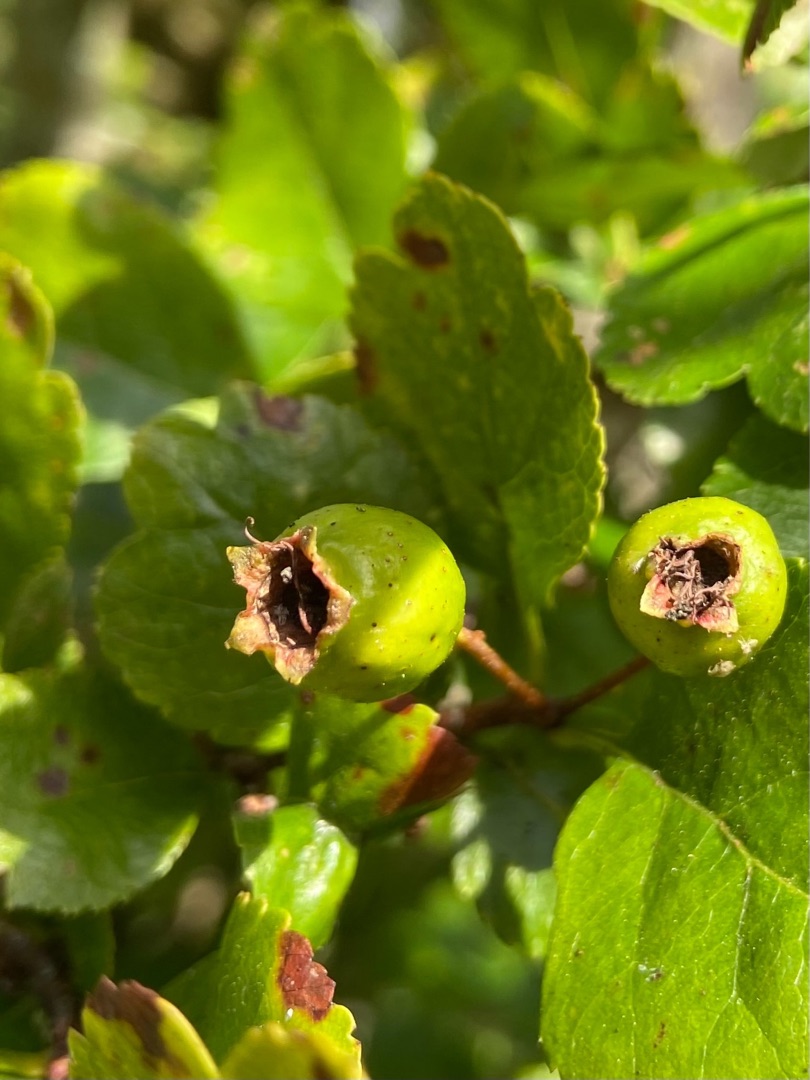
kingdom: Plantae
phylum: Tracheophyta
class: Magnoliopsida
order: Rosales
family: Rosaceae
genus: Crataegus
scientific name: Crataegus laevigata
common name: Almindelig hvidtjørn
